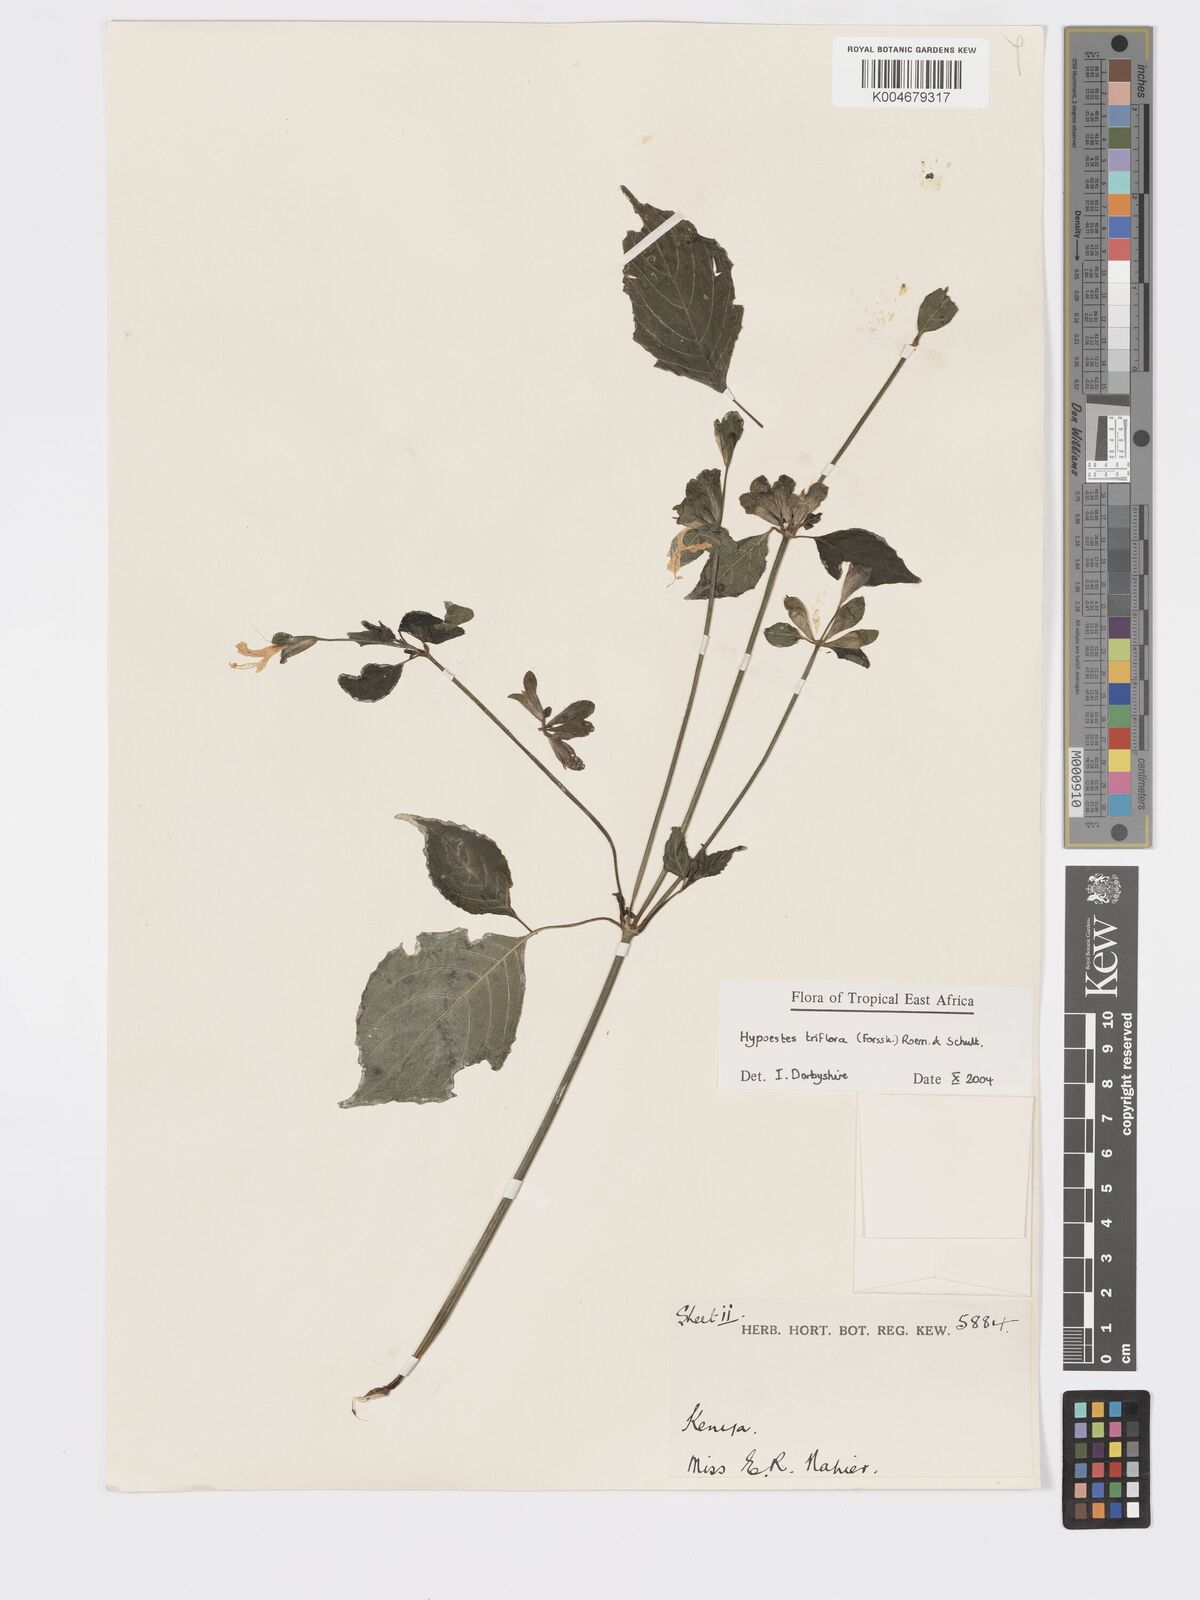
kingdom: Plantae
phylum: Tracheophyta
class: Magnoliopsida
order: Lamiales
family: Acanthaceae
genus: Hypoestes
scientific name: Hypoestes triflora
